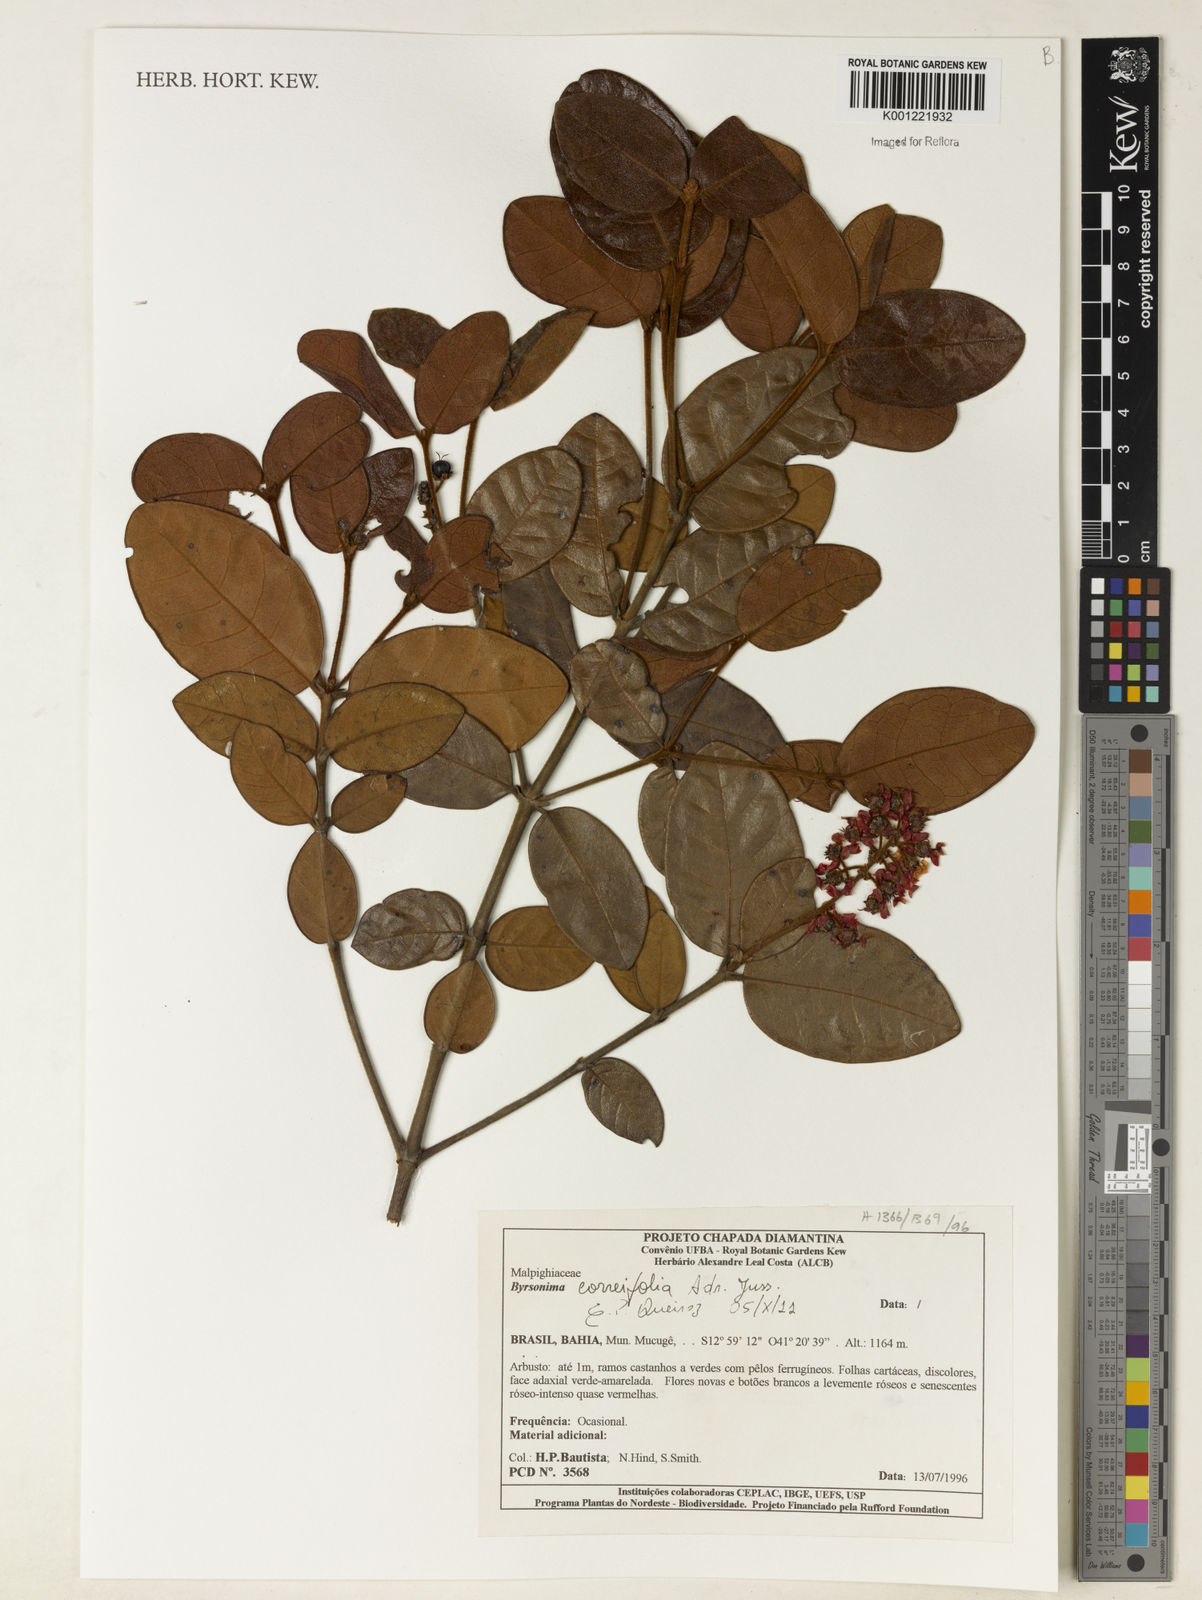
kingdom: Plantae
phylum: Tracheophyta
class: Magnoliopsida
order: Malpighiales
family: Malpighiaceae
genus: Byrsonima
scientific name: Byrsonima correifolia
